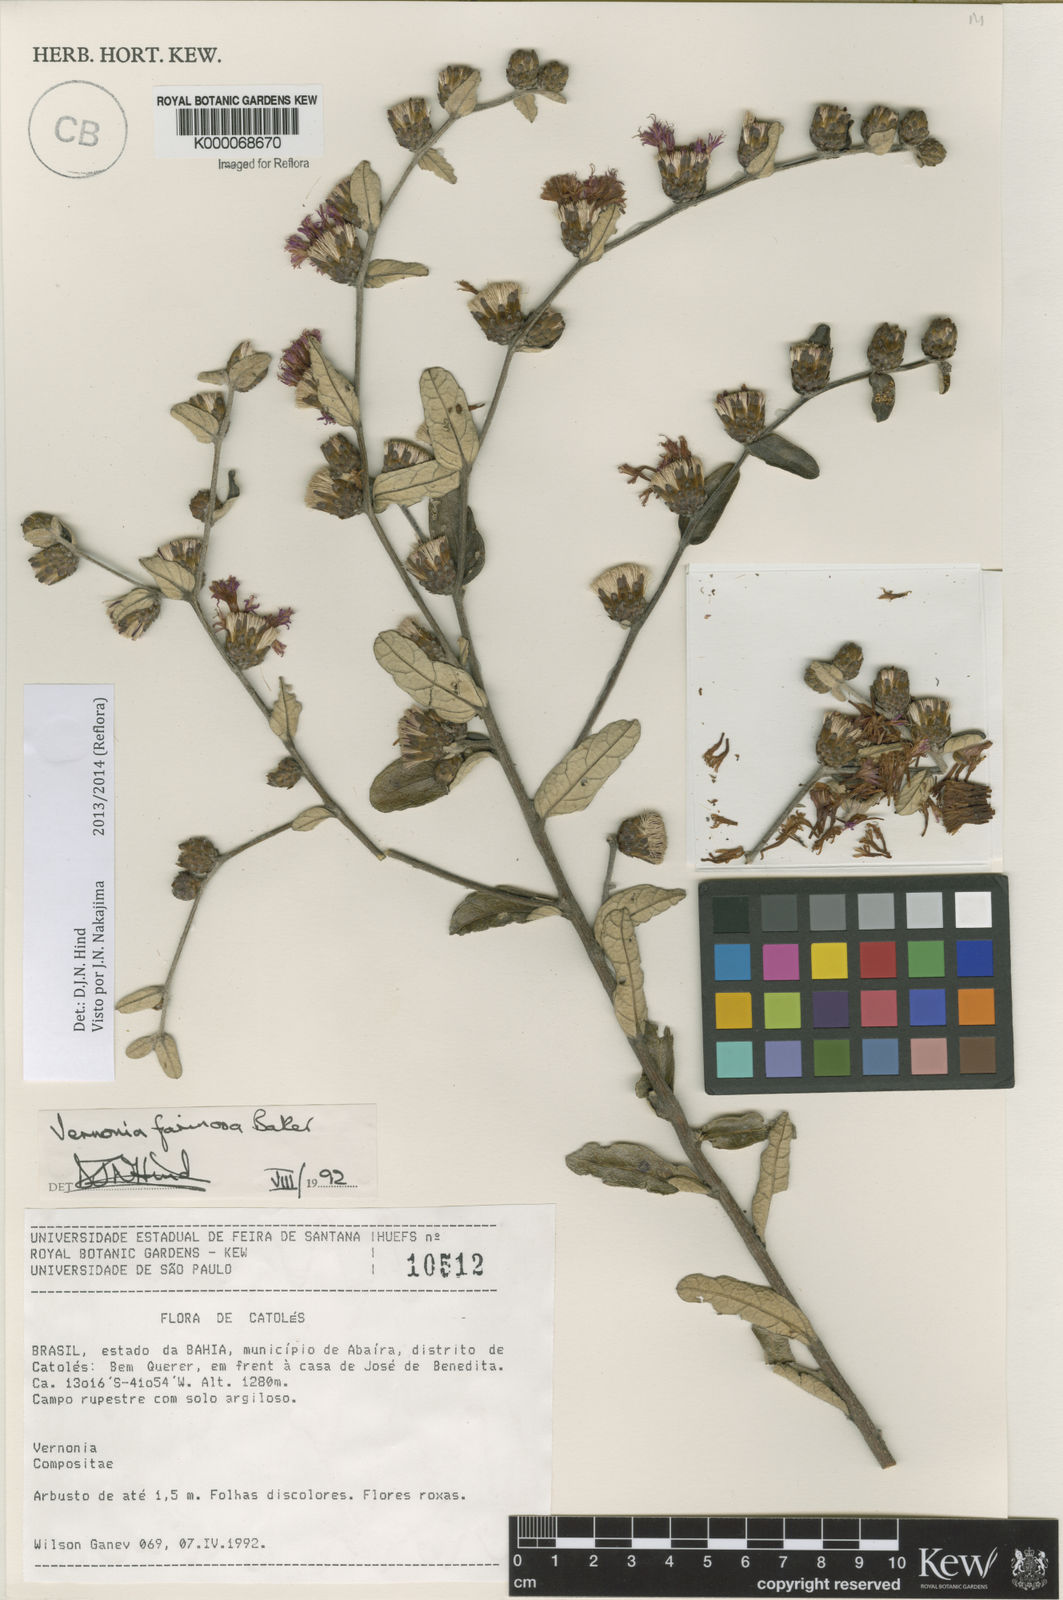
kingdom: Plantae
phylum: Tracheophyta
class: Magnoliopsida
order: Asterales
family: Asteraceae
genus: Lessingianthus
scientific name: Lessingianthus farinosus
